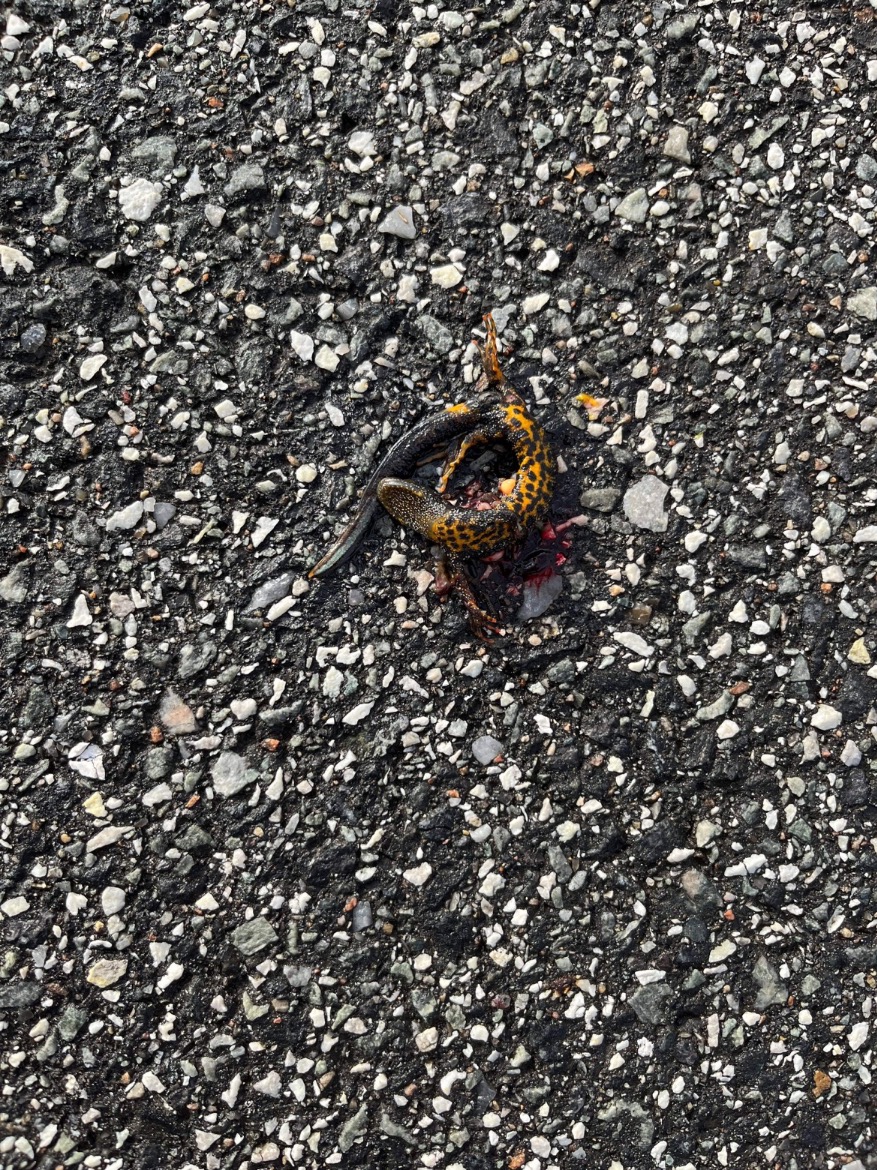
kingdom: Animalia
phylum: Chordata
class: Amphibia
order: Caudata
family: Salamandridae
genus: Triturus
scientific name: Triturus cristatus
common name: Stor vandsalamander
